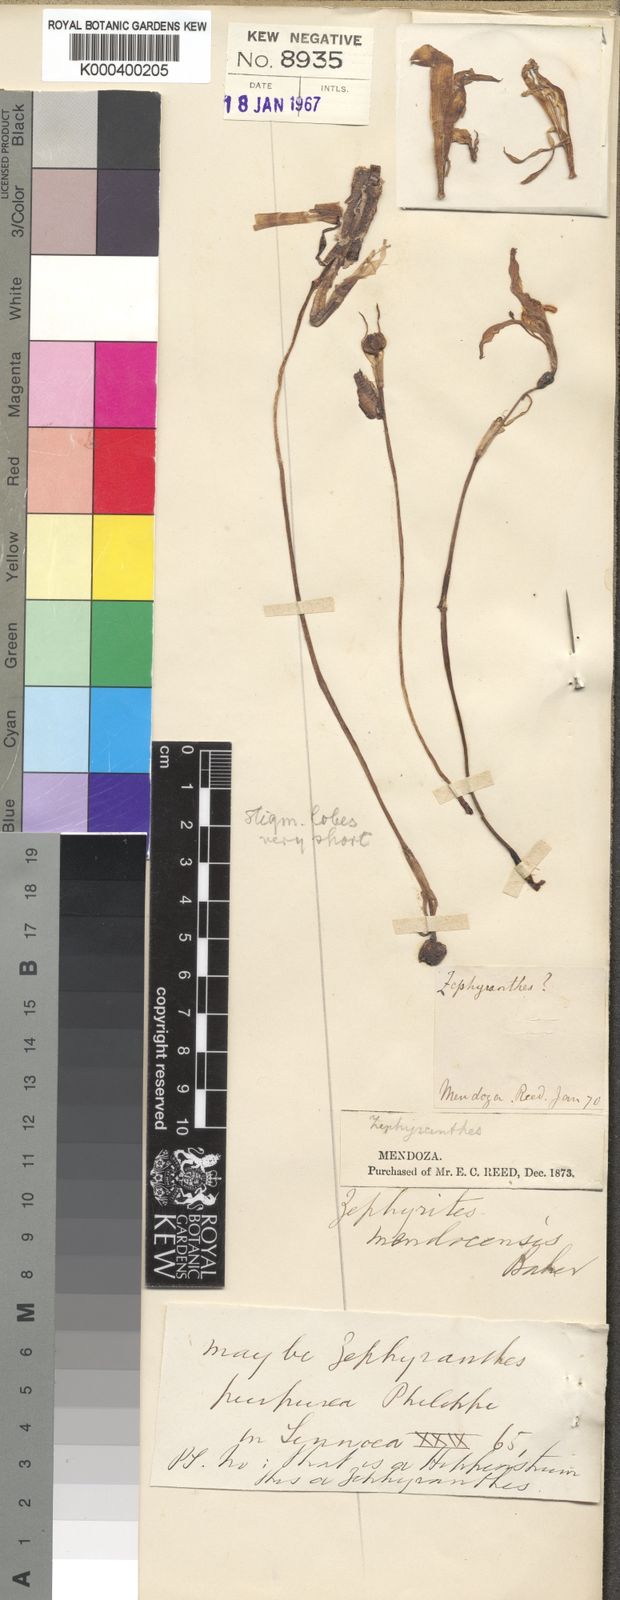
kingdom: Plantae
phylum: Tracheophyta
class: Liliopsida
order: Asparagales
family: Amaryllidaceae
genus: Zephyranthes
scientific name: Zephyranthes mendocensis
